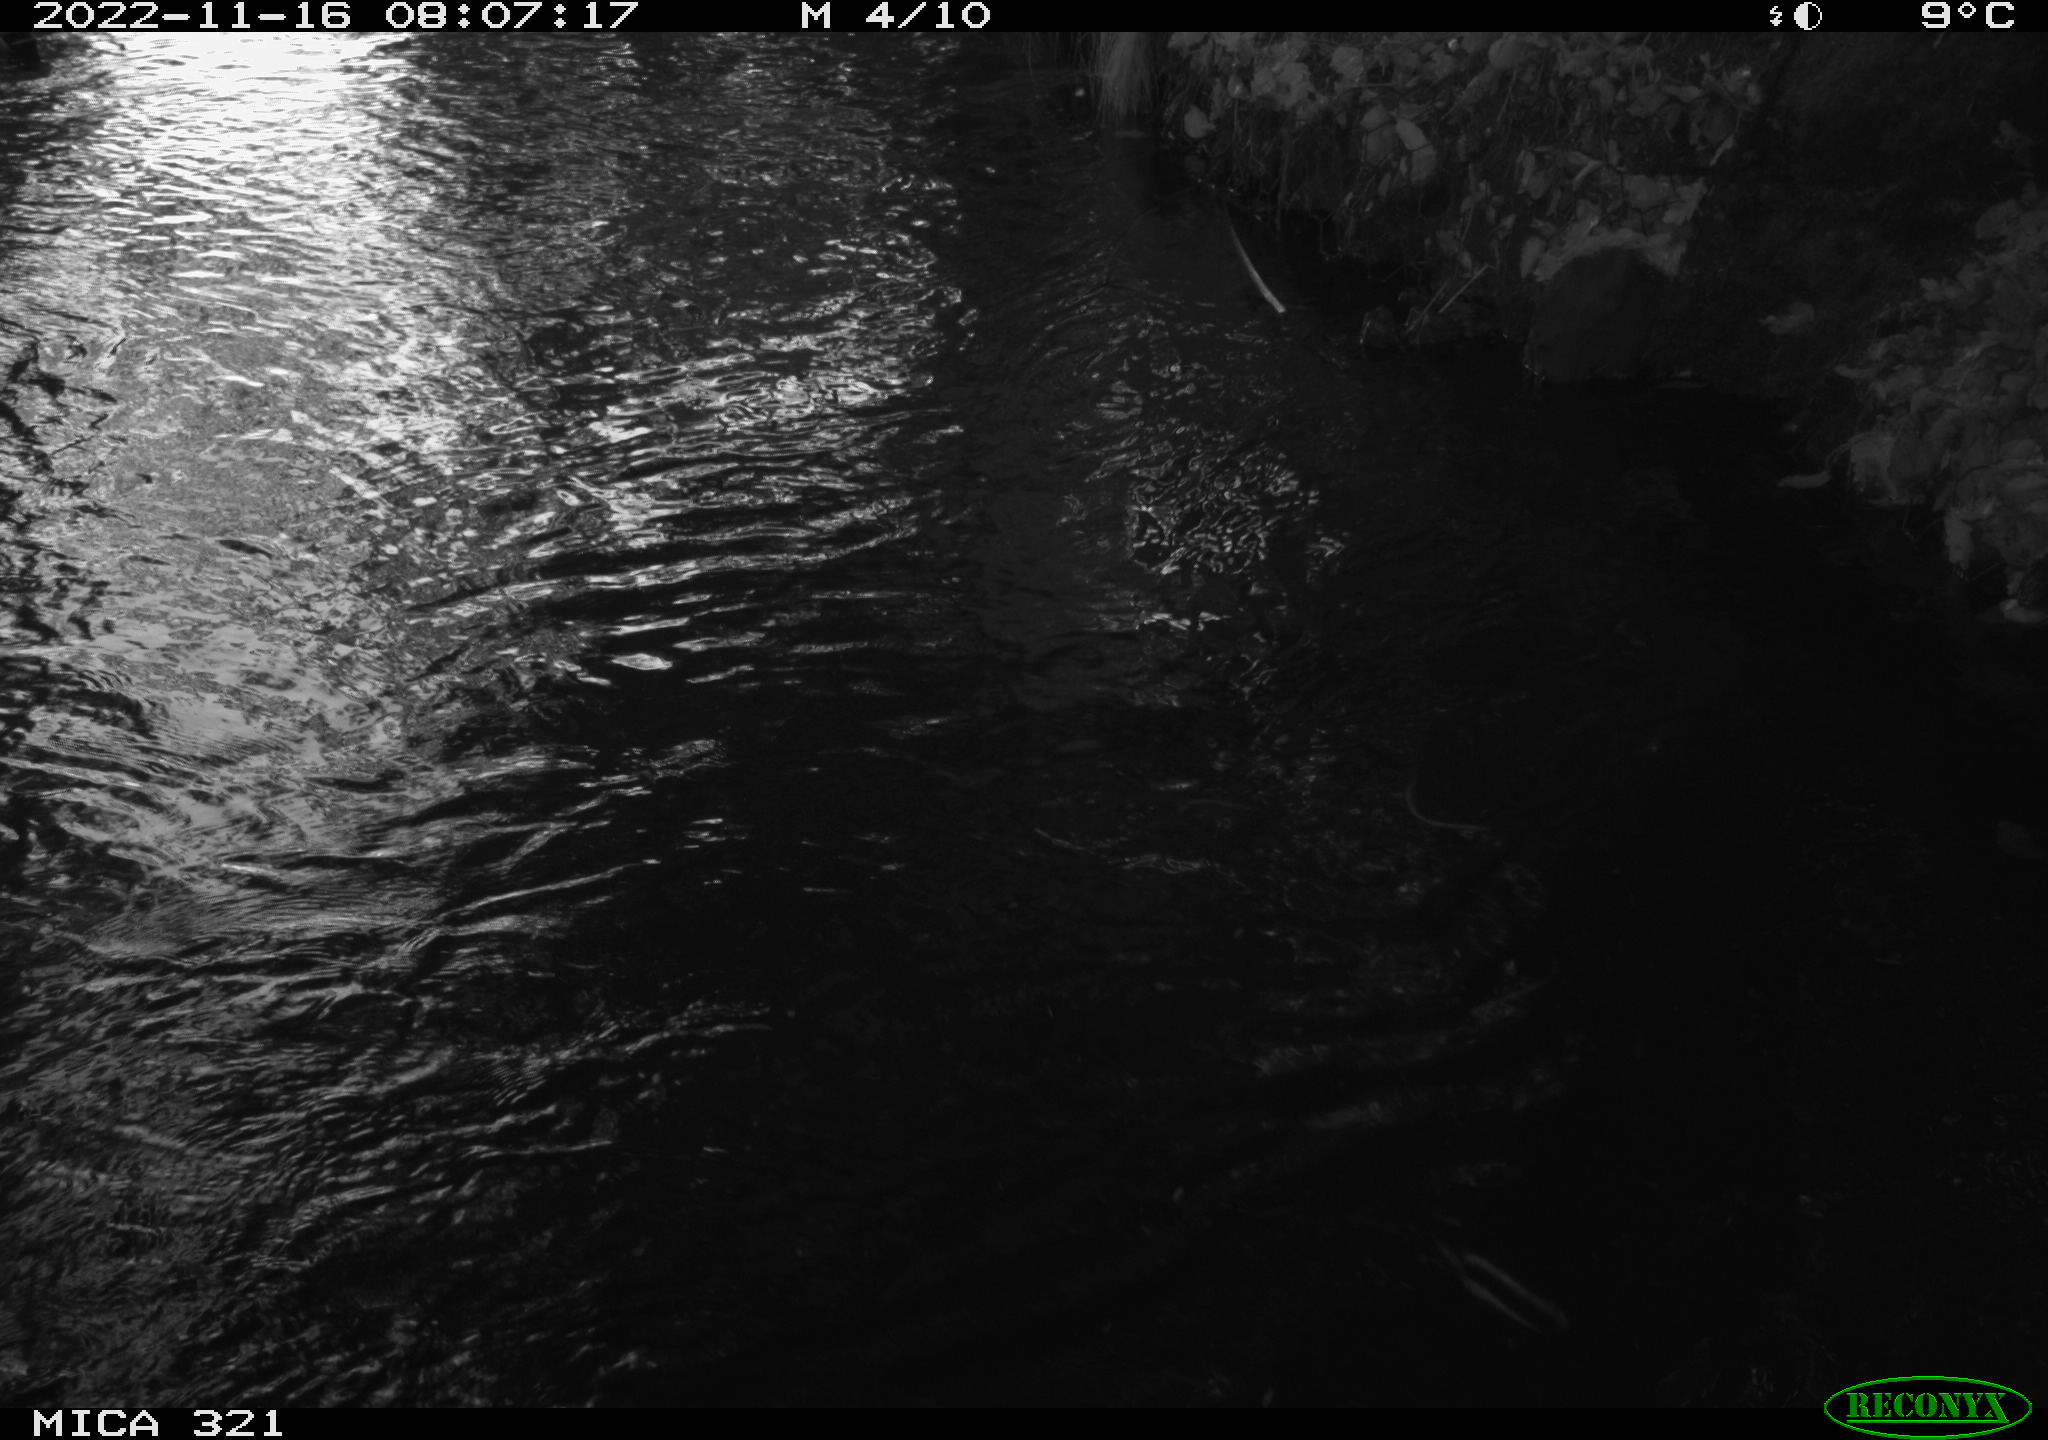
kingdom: Animalia
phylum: Chordata
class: Aves
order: Anseriformes
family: Anatidae
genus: Anas
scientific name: Anas
